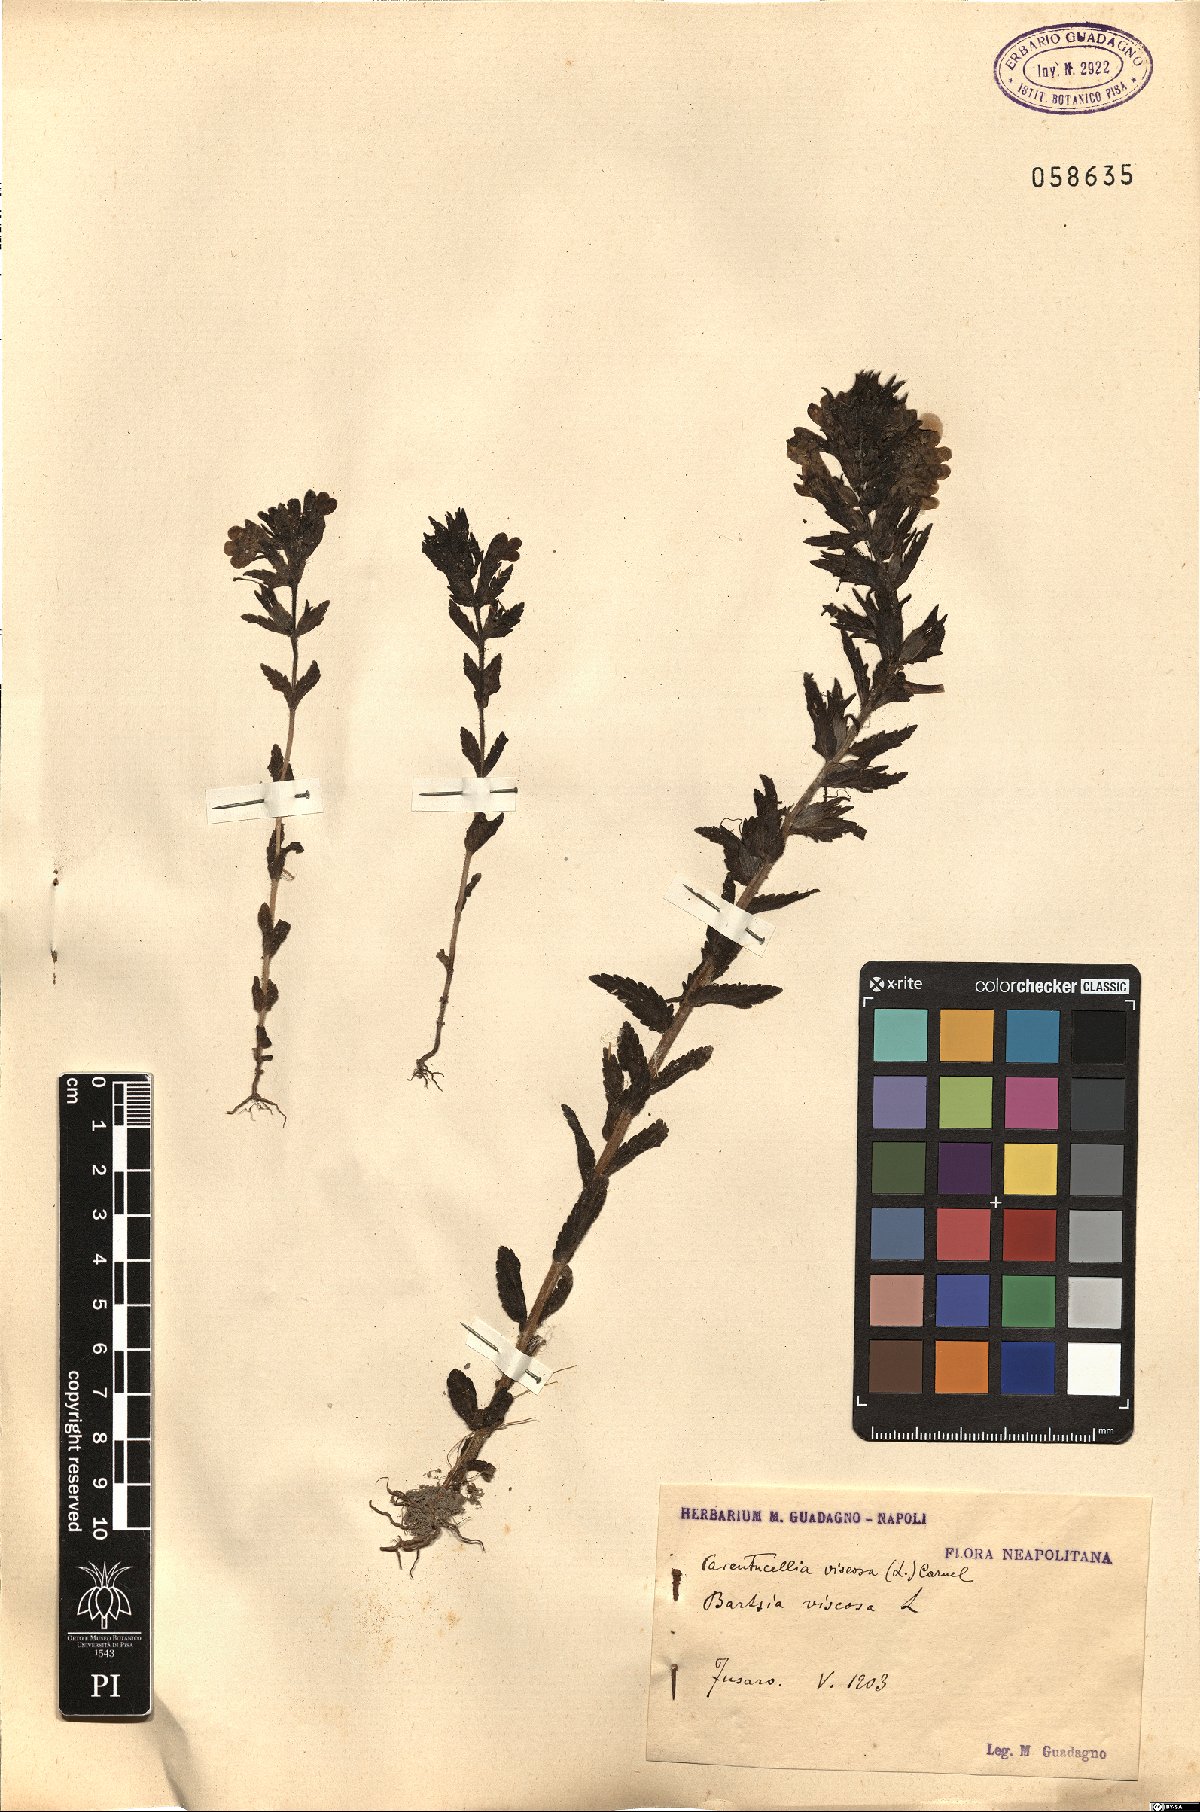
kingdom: Plantae
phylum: Tracheophyta
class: Magnoliopsida
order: Lamiales
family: Orobanchaceae
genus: Bellardia
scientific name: Bellardia viscosa
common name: Sticky parentucellia
